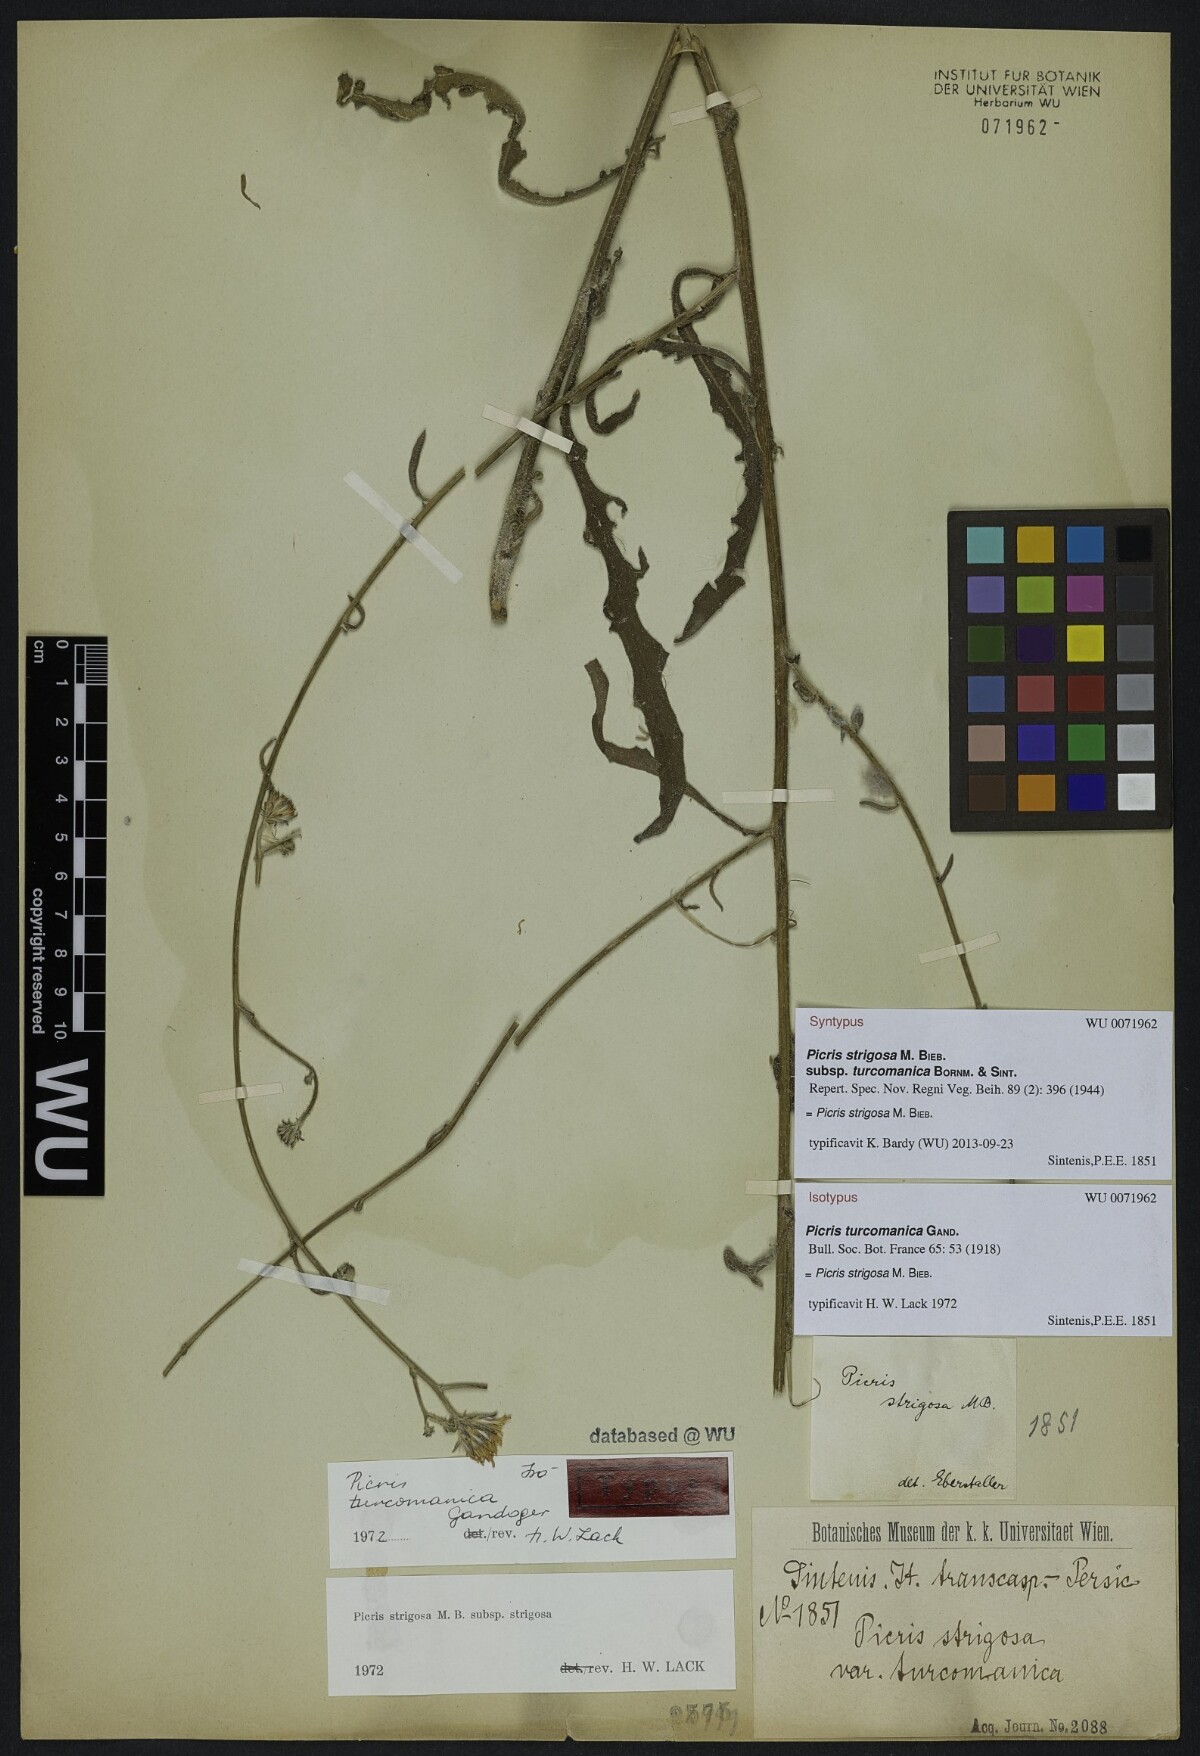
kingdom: Plantae
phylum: Tracheophyta
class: Magnoliopsida
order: Asterales
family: Asteraceae
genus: Picris
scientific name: Picris strigosa
